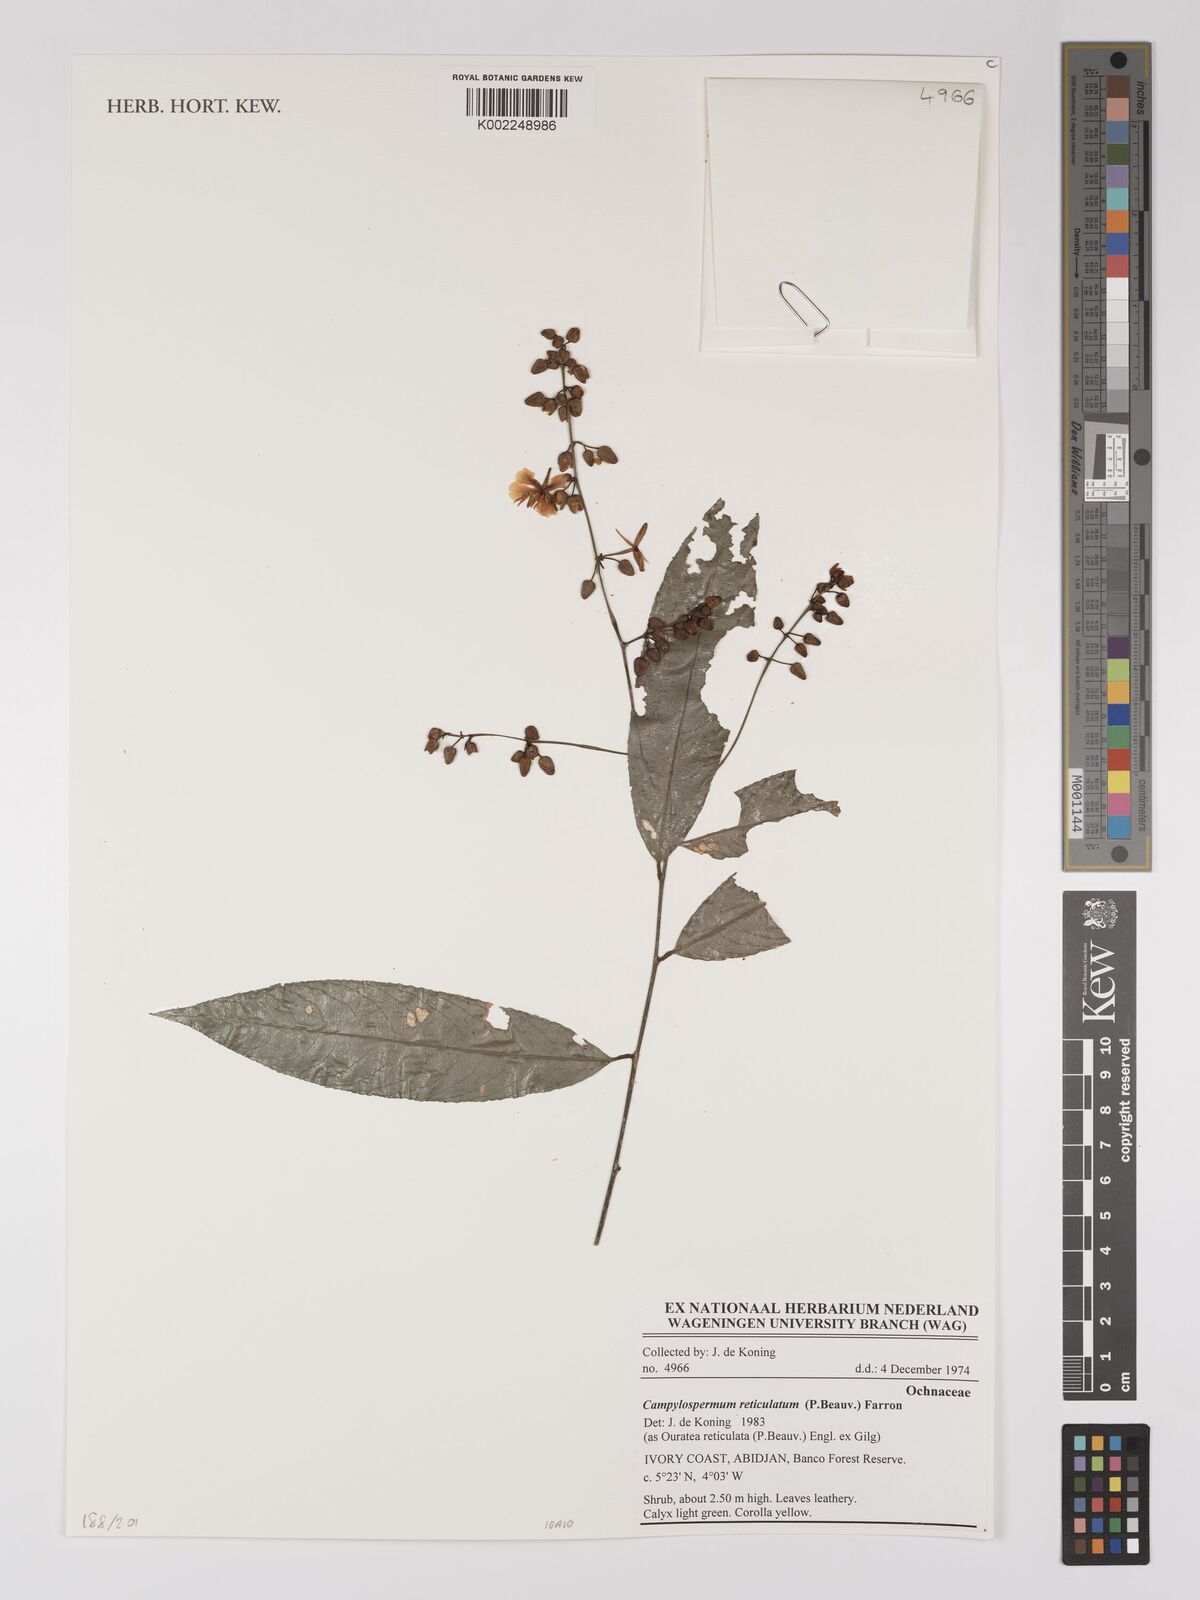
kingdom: Plantae
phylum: Tracheophyta
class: Magnoliopsida
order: Malpighiales
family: Ochnaceae
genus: Campylospermum
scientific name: Campylospermum reticulatum
